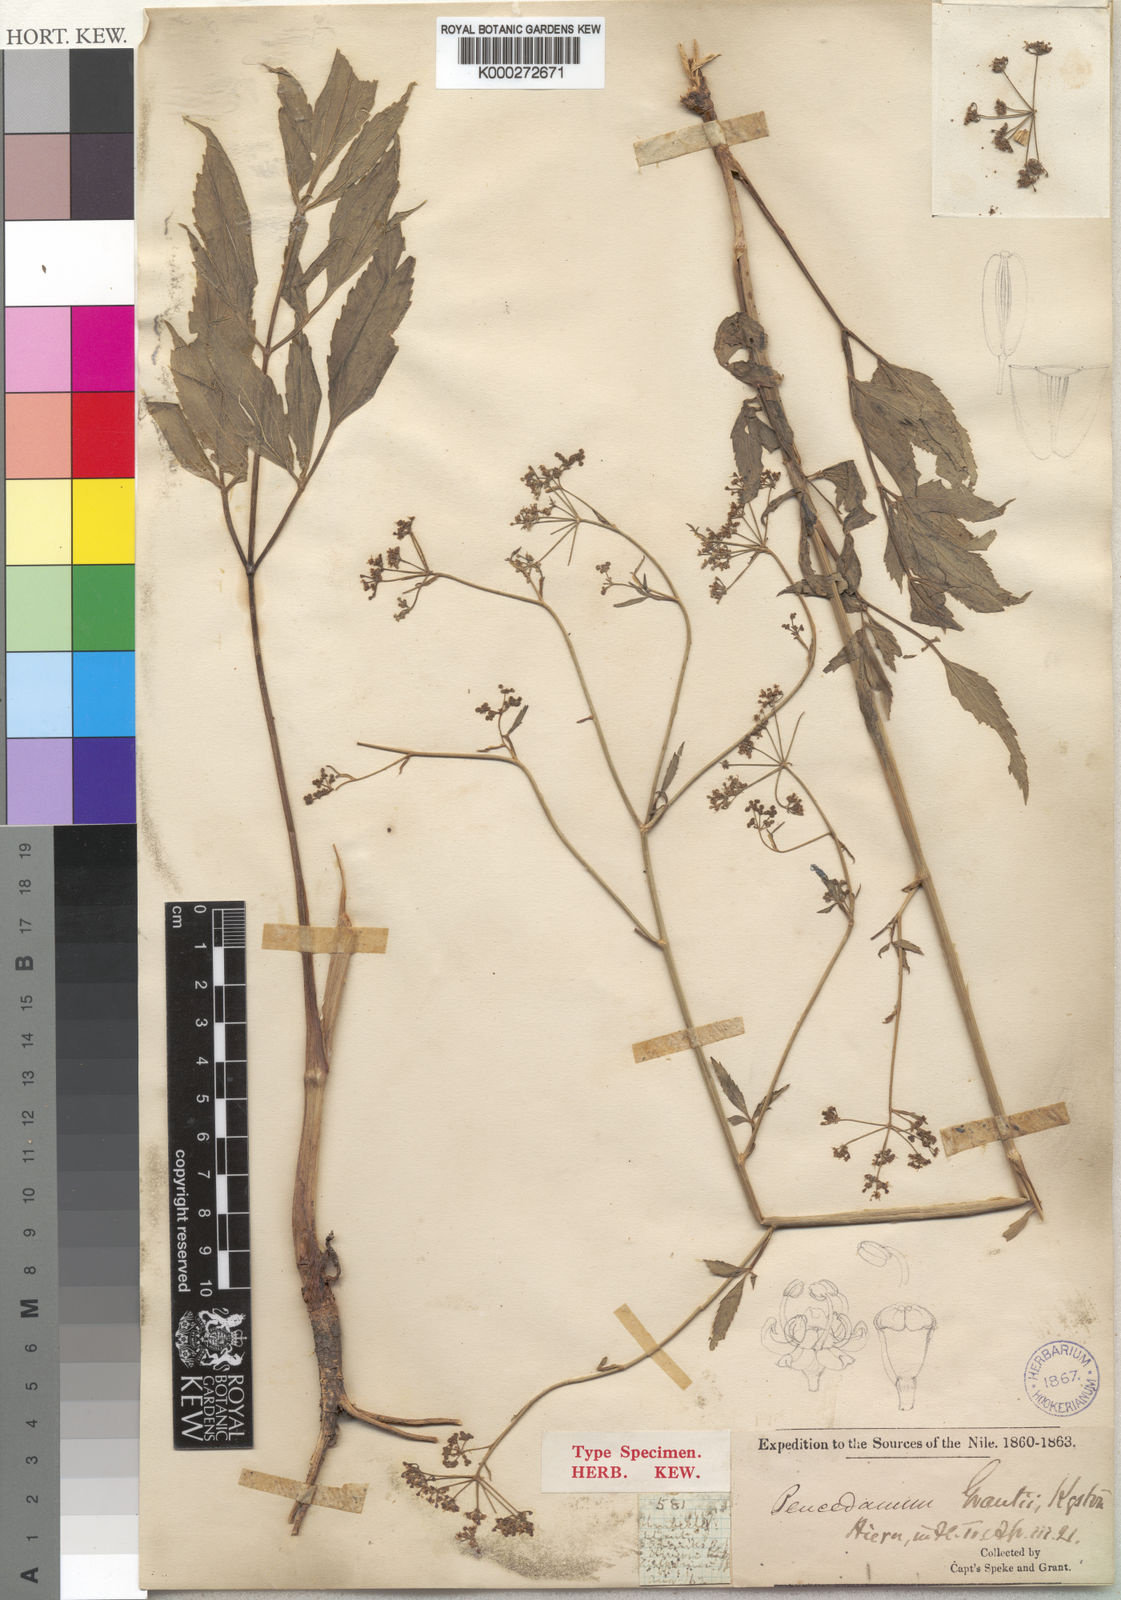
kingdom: Plantae
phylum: Tracheophyta
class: Magnoliopsida
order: Apiales
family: Apiaceae
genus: Lefebvrea
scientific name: Lefebvrea grantii
